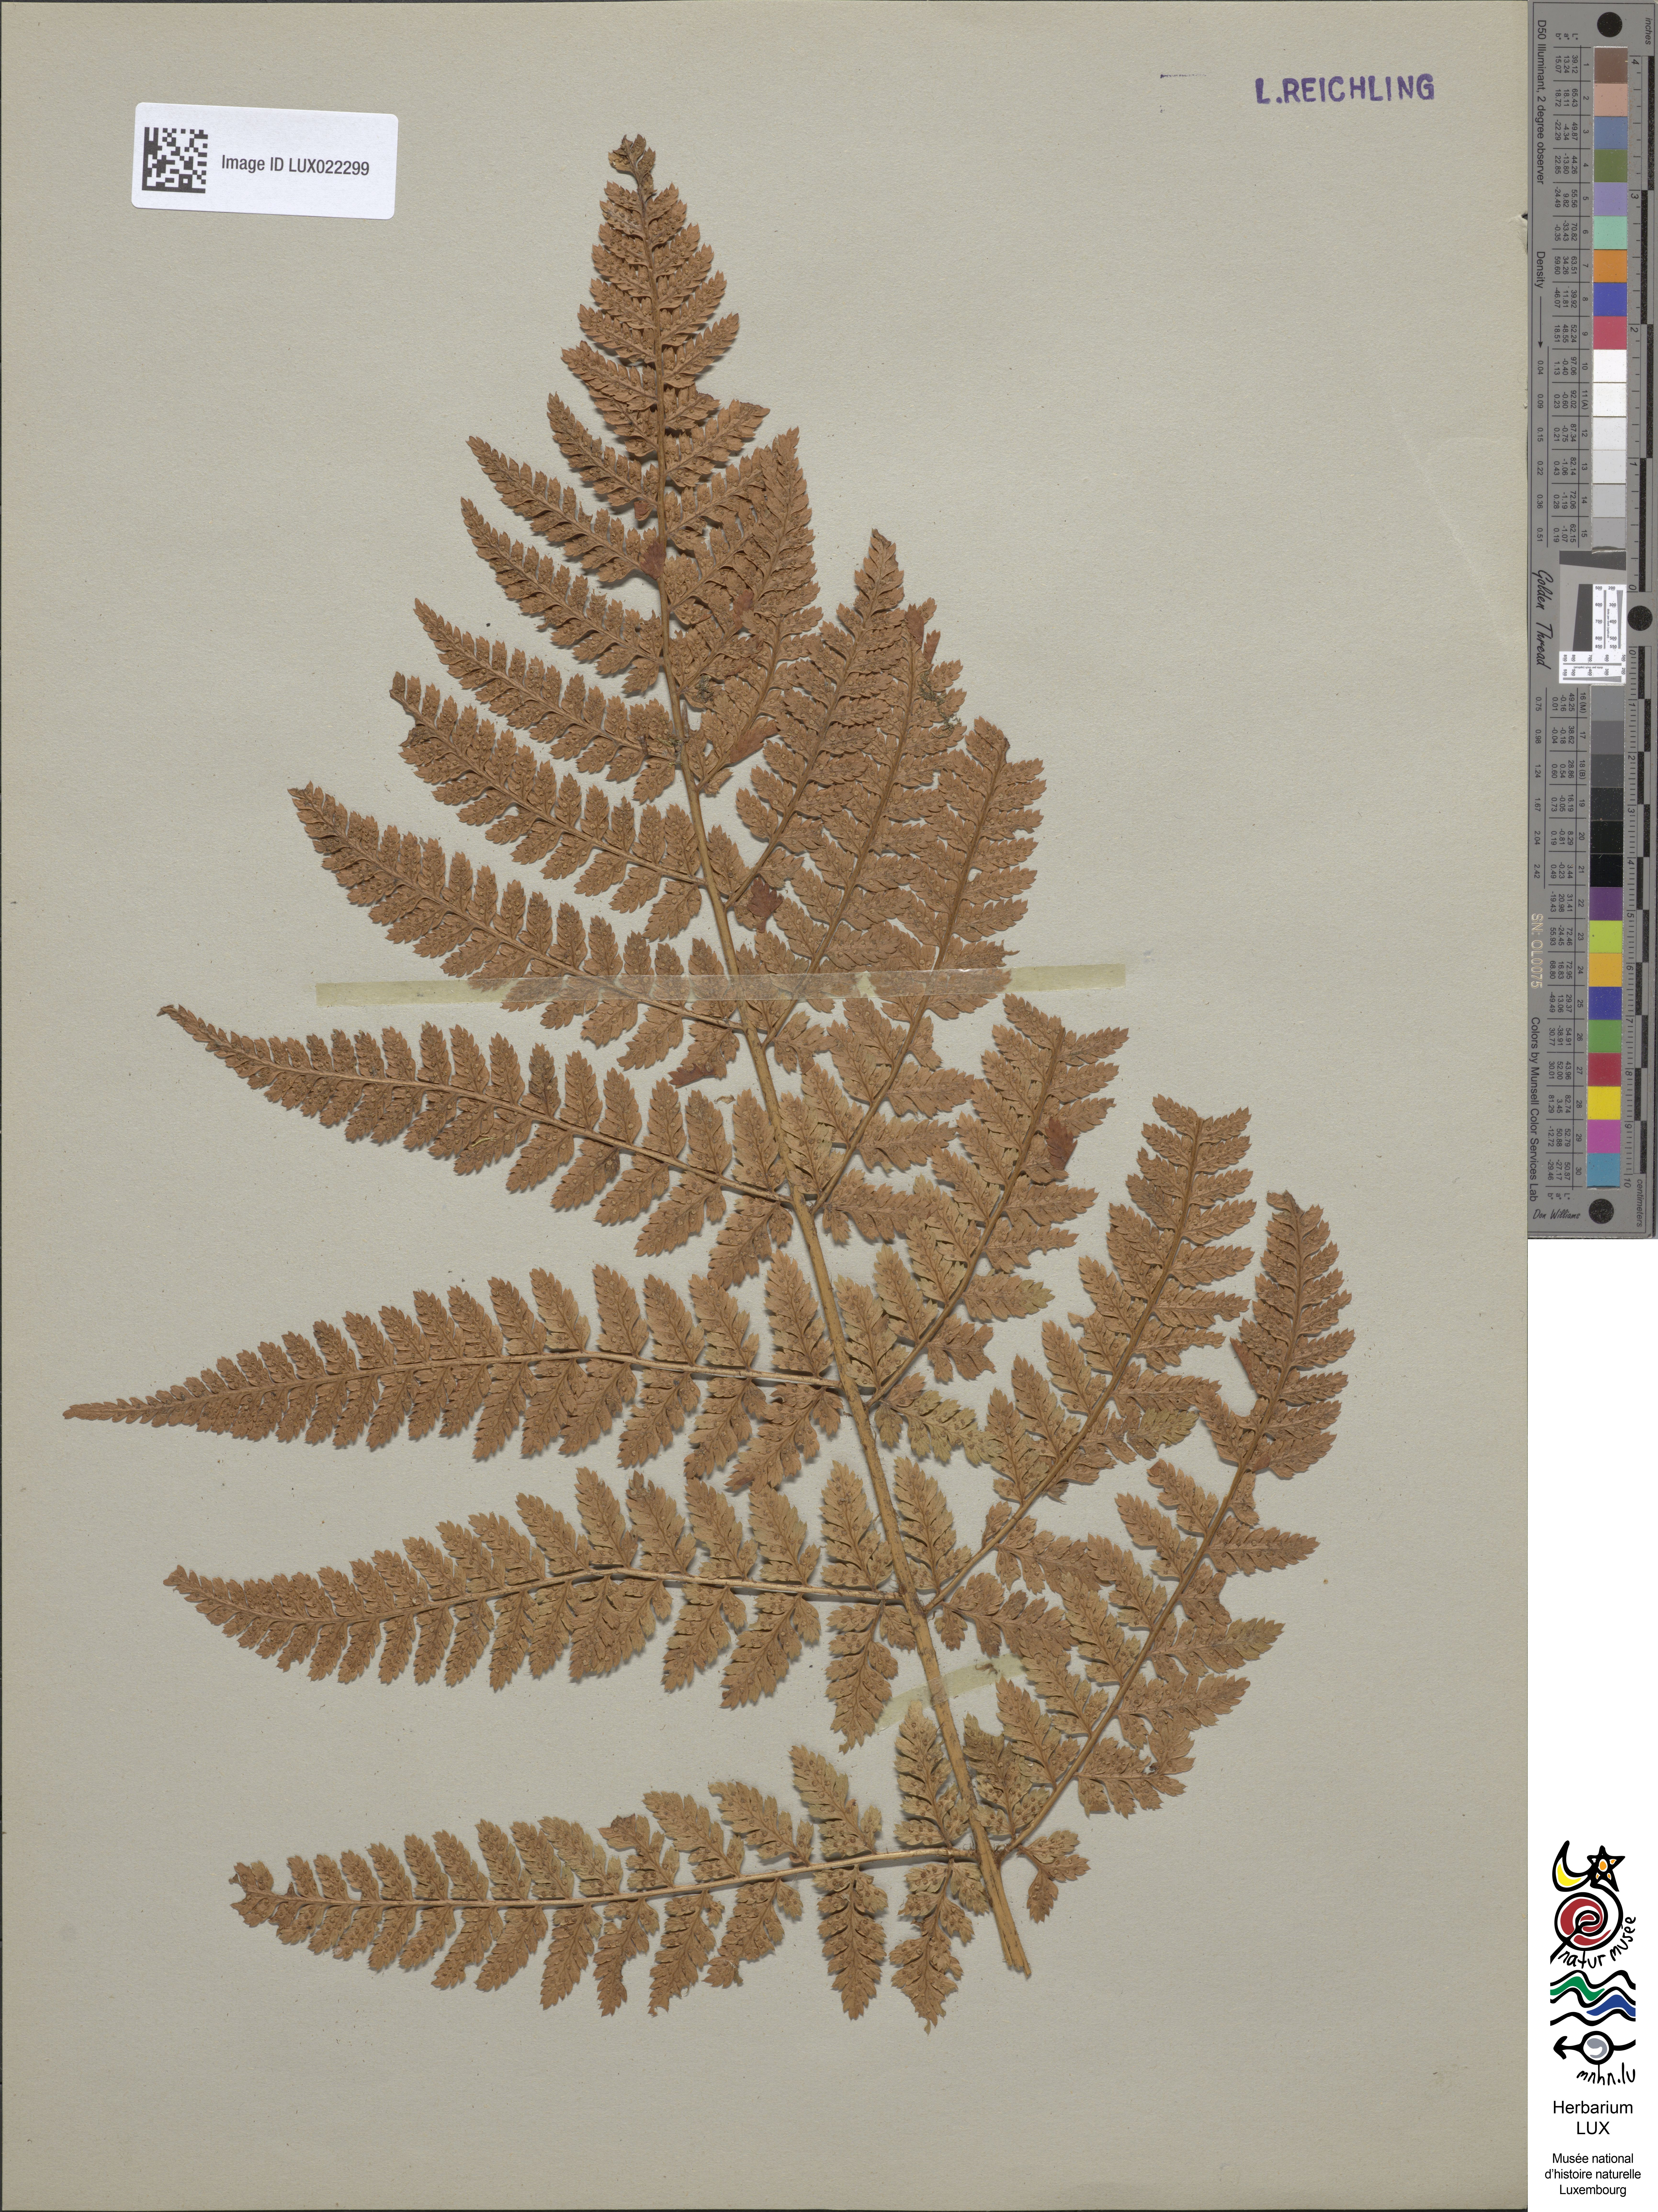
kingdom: Plantae
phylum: Tracheophyta
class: Polypodiopsida
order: Polypodiales
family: Dryopteridaceae
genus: Dryopteris
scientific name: Dryopteris dilatata
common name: Broad buckler-fern
